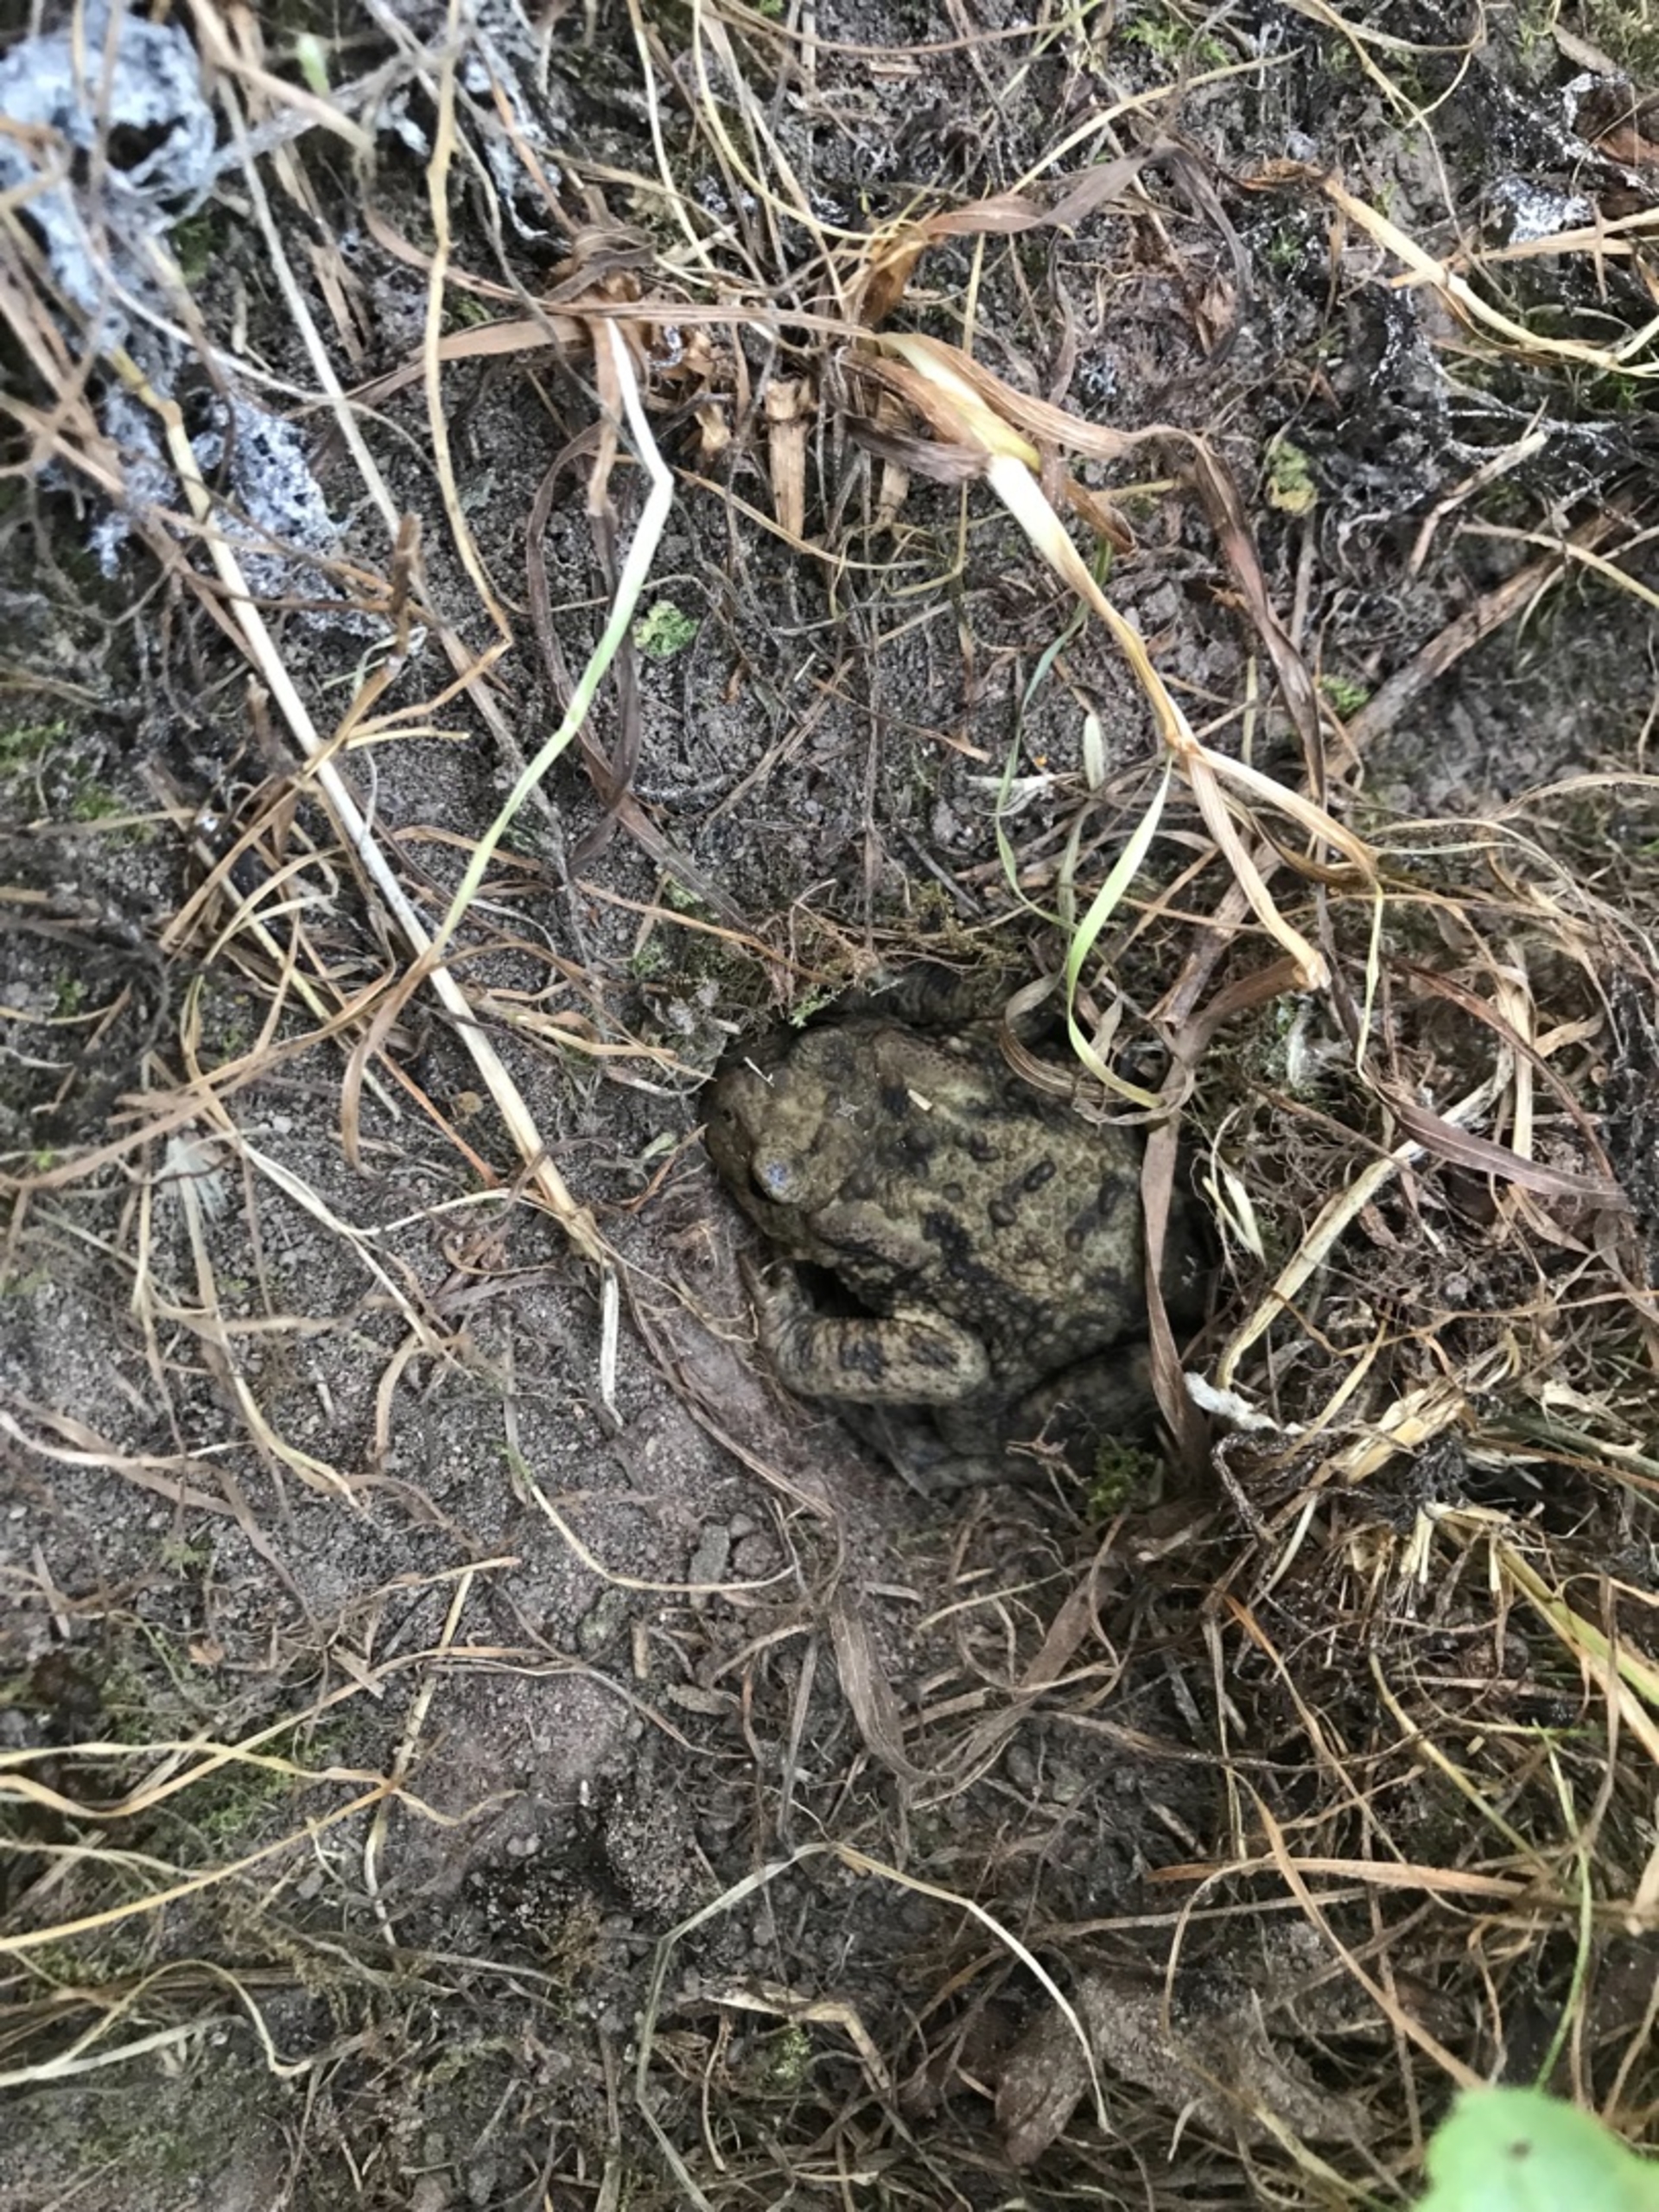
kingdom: Animalia
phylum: Chordata
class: Amphibia
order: Anura
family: Bufonidae
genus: Bufo
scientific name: Bufo bufo
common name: Skrubtudse
